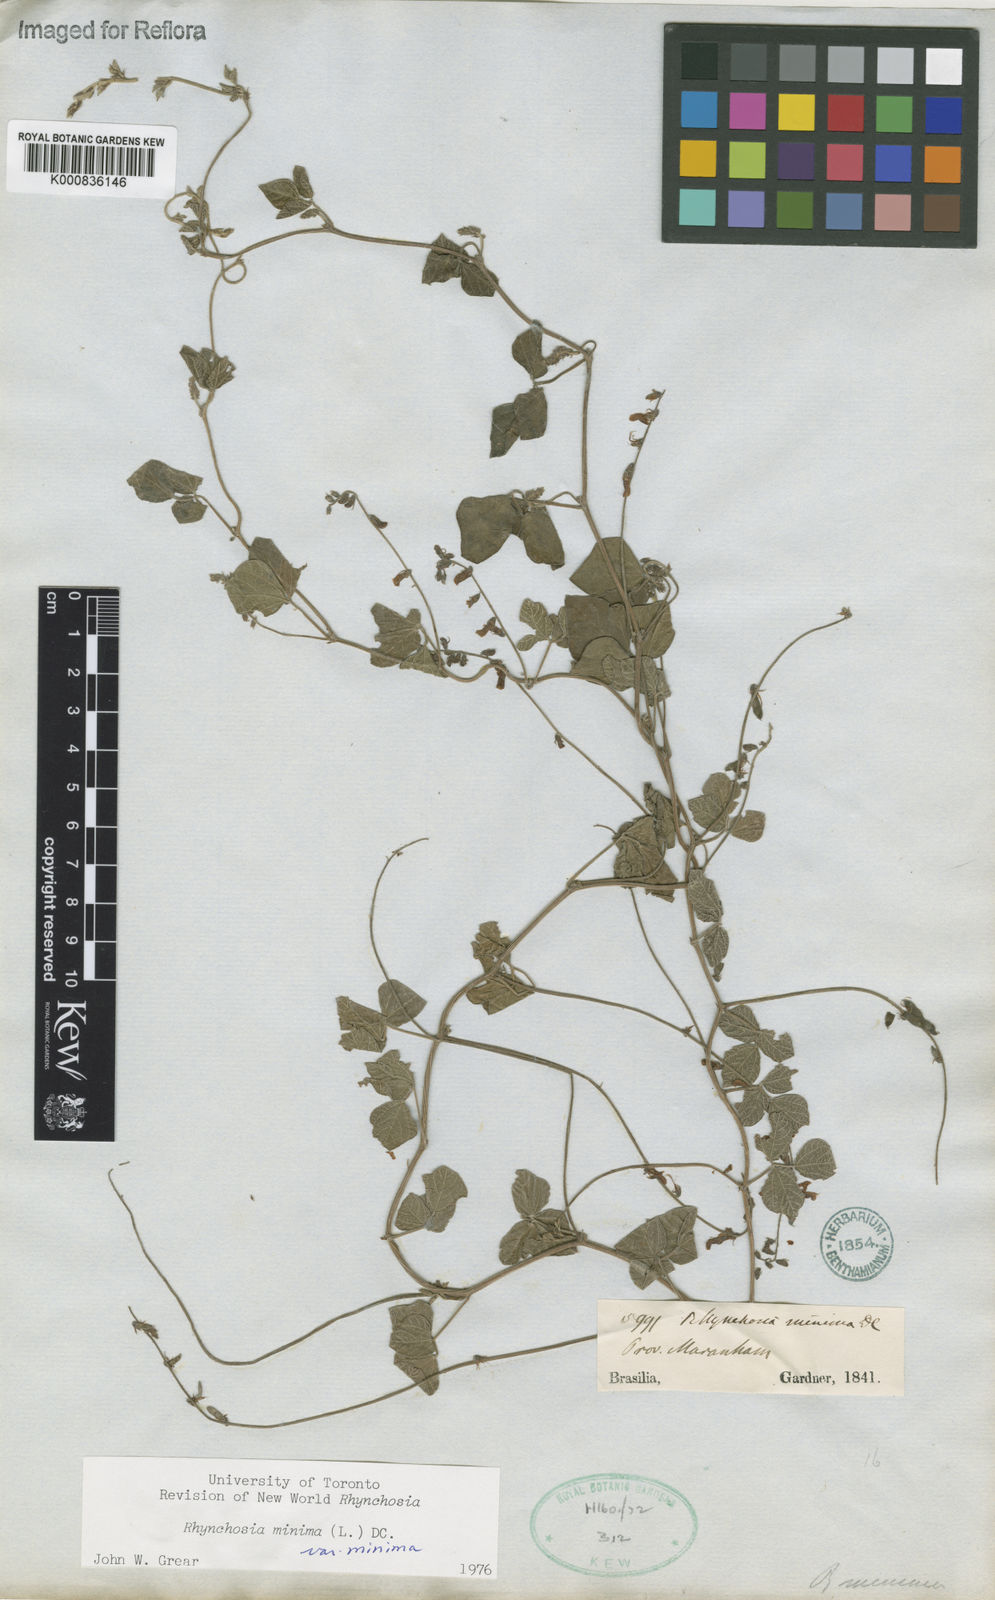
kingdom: Plantae
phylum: Tracheophyta
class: Magnoliopsida
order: Fabales
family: Fabaceae
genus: Rhynchosia
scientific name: Rhynchosia minima
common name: Least snoutbean
